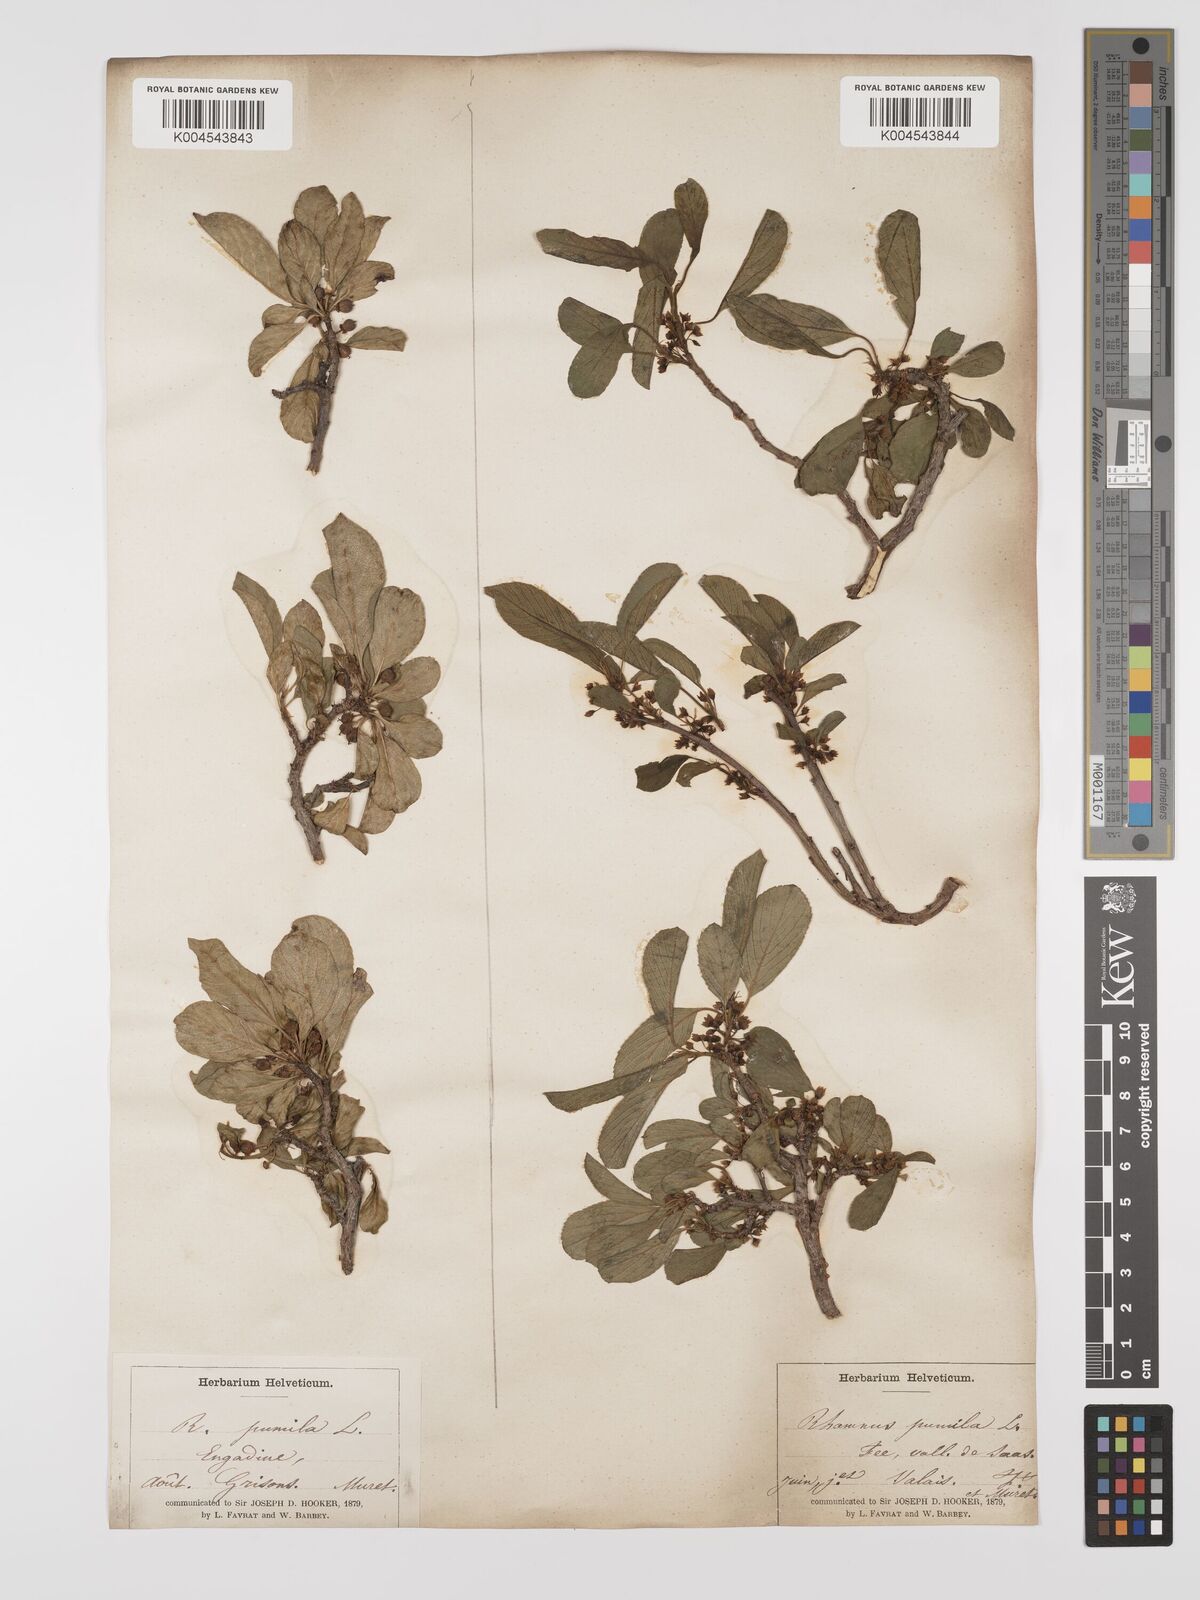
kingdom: Plantae
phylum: Tracheophyta
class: Magnoliopsida
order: Rosales
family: Rhamnaceae
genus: Rhamnus
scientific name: Rhamnus
